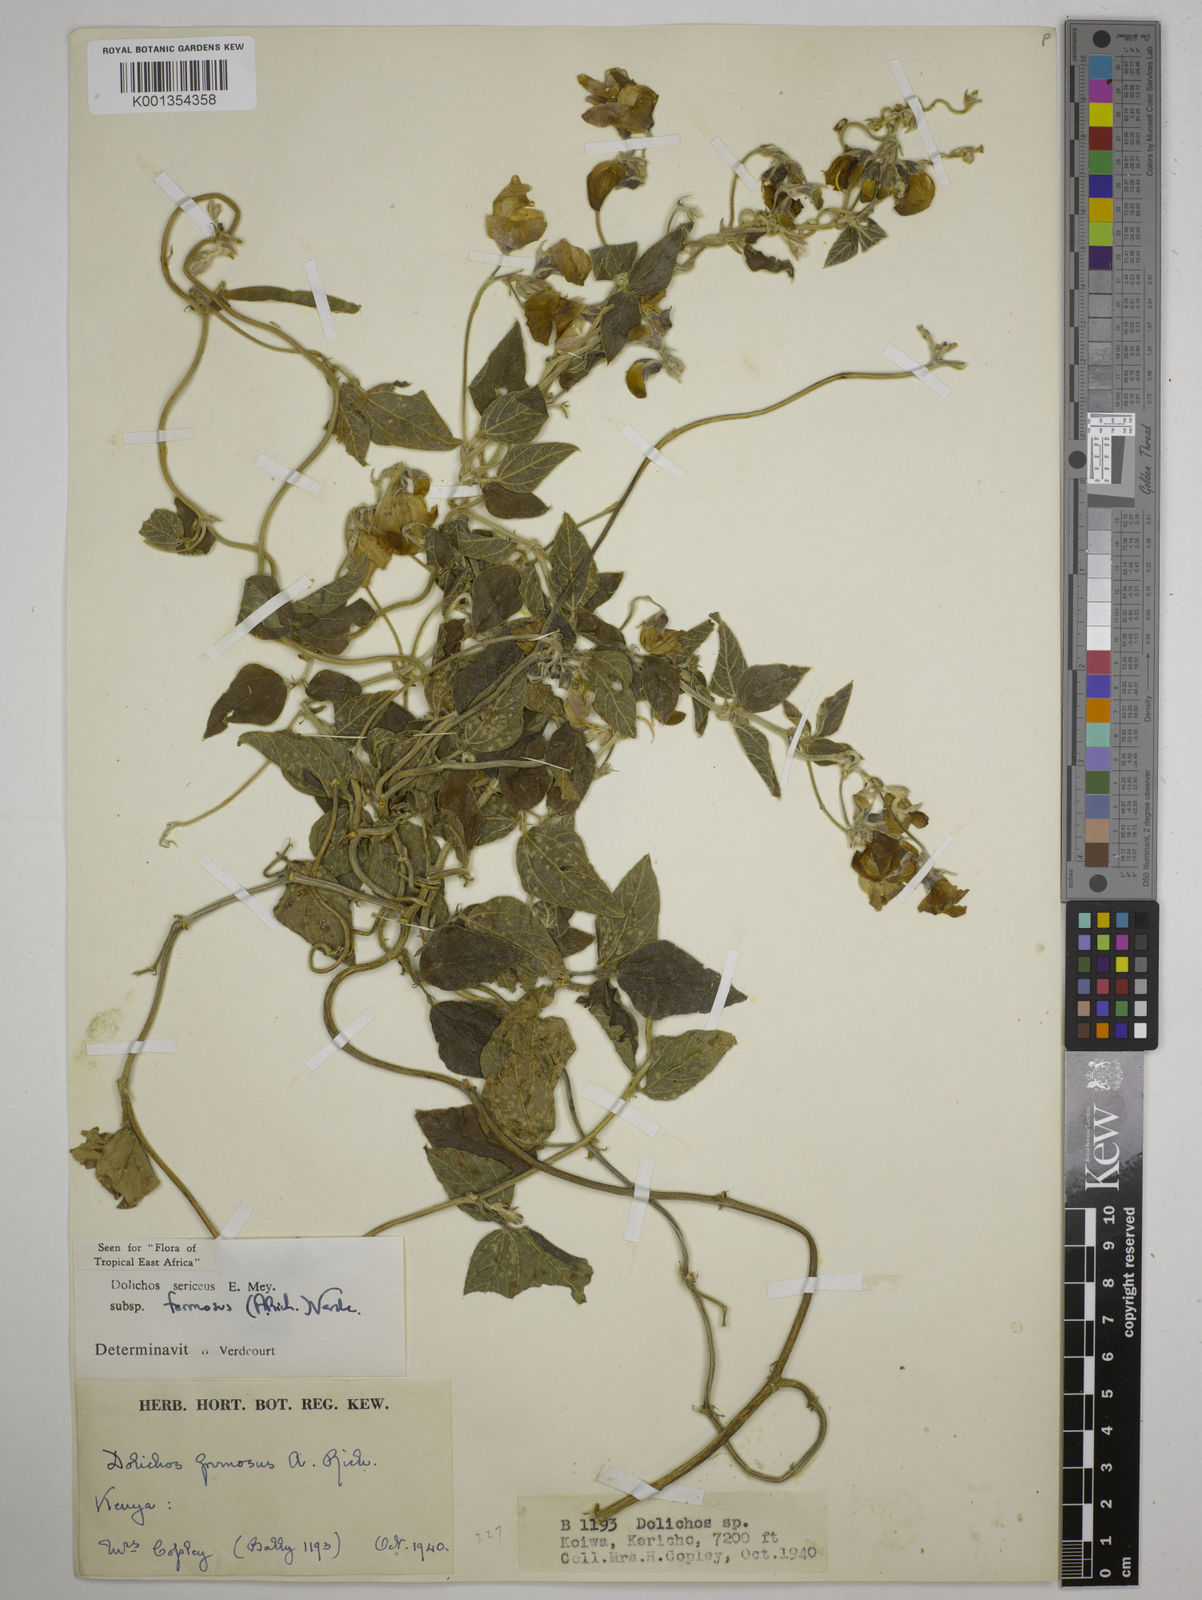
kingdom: Plantae
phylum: Tracheophyta
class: Magnoliopsida
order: Fabales
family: Fabaceae
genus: Dolichos
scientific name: Dolichos
